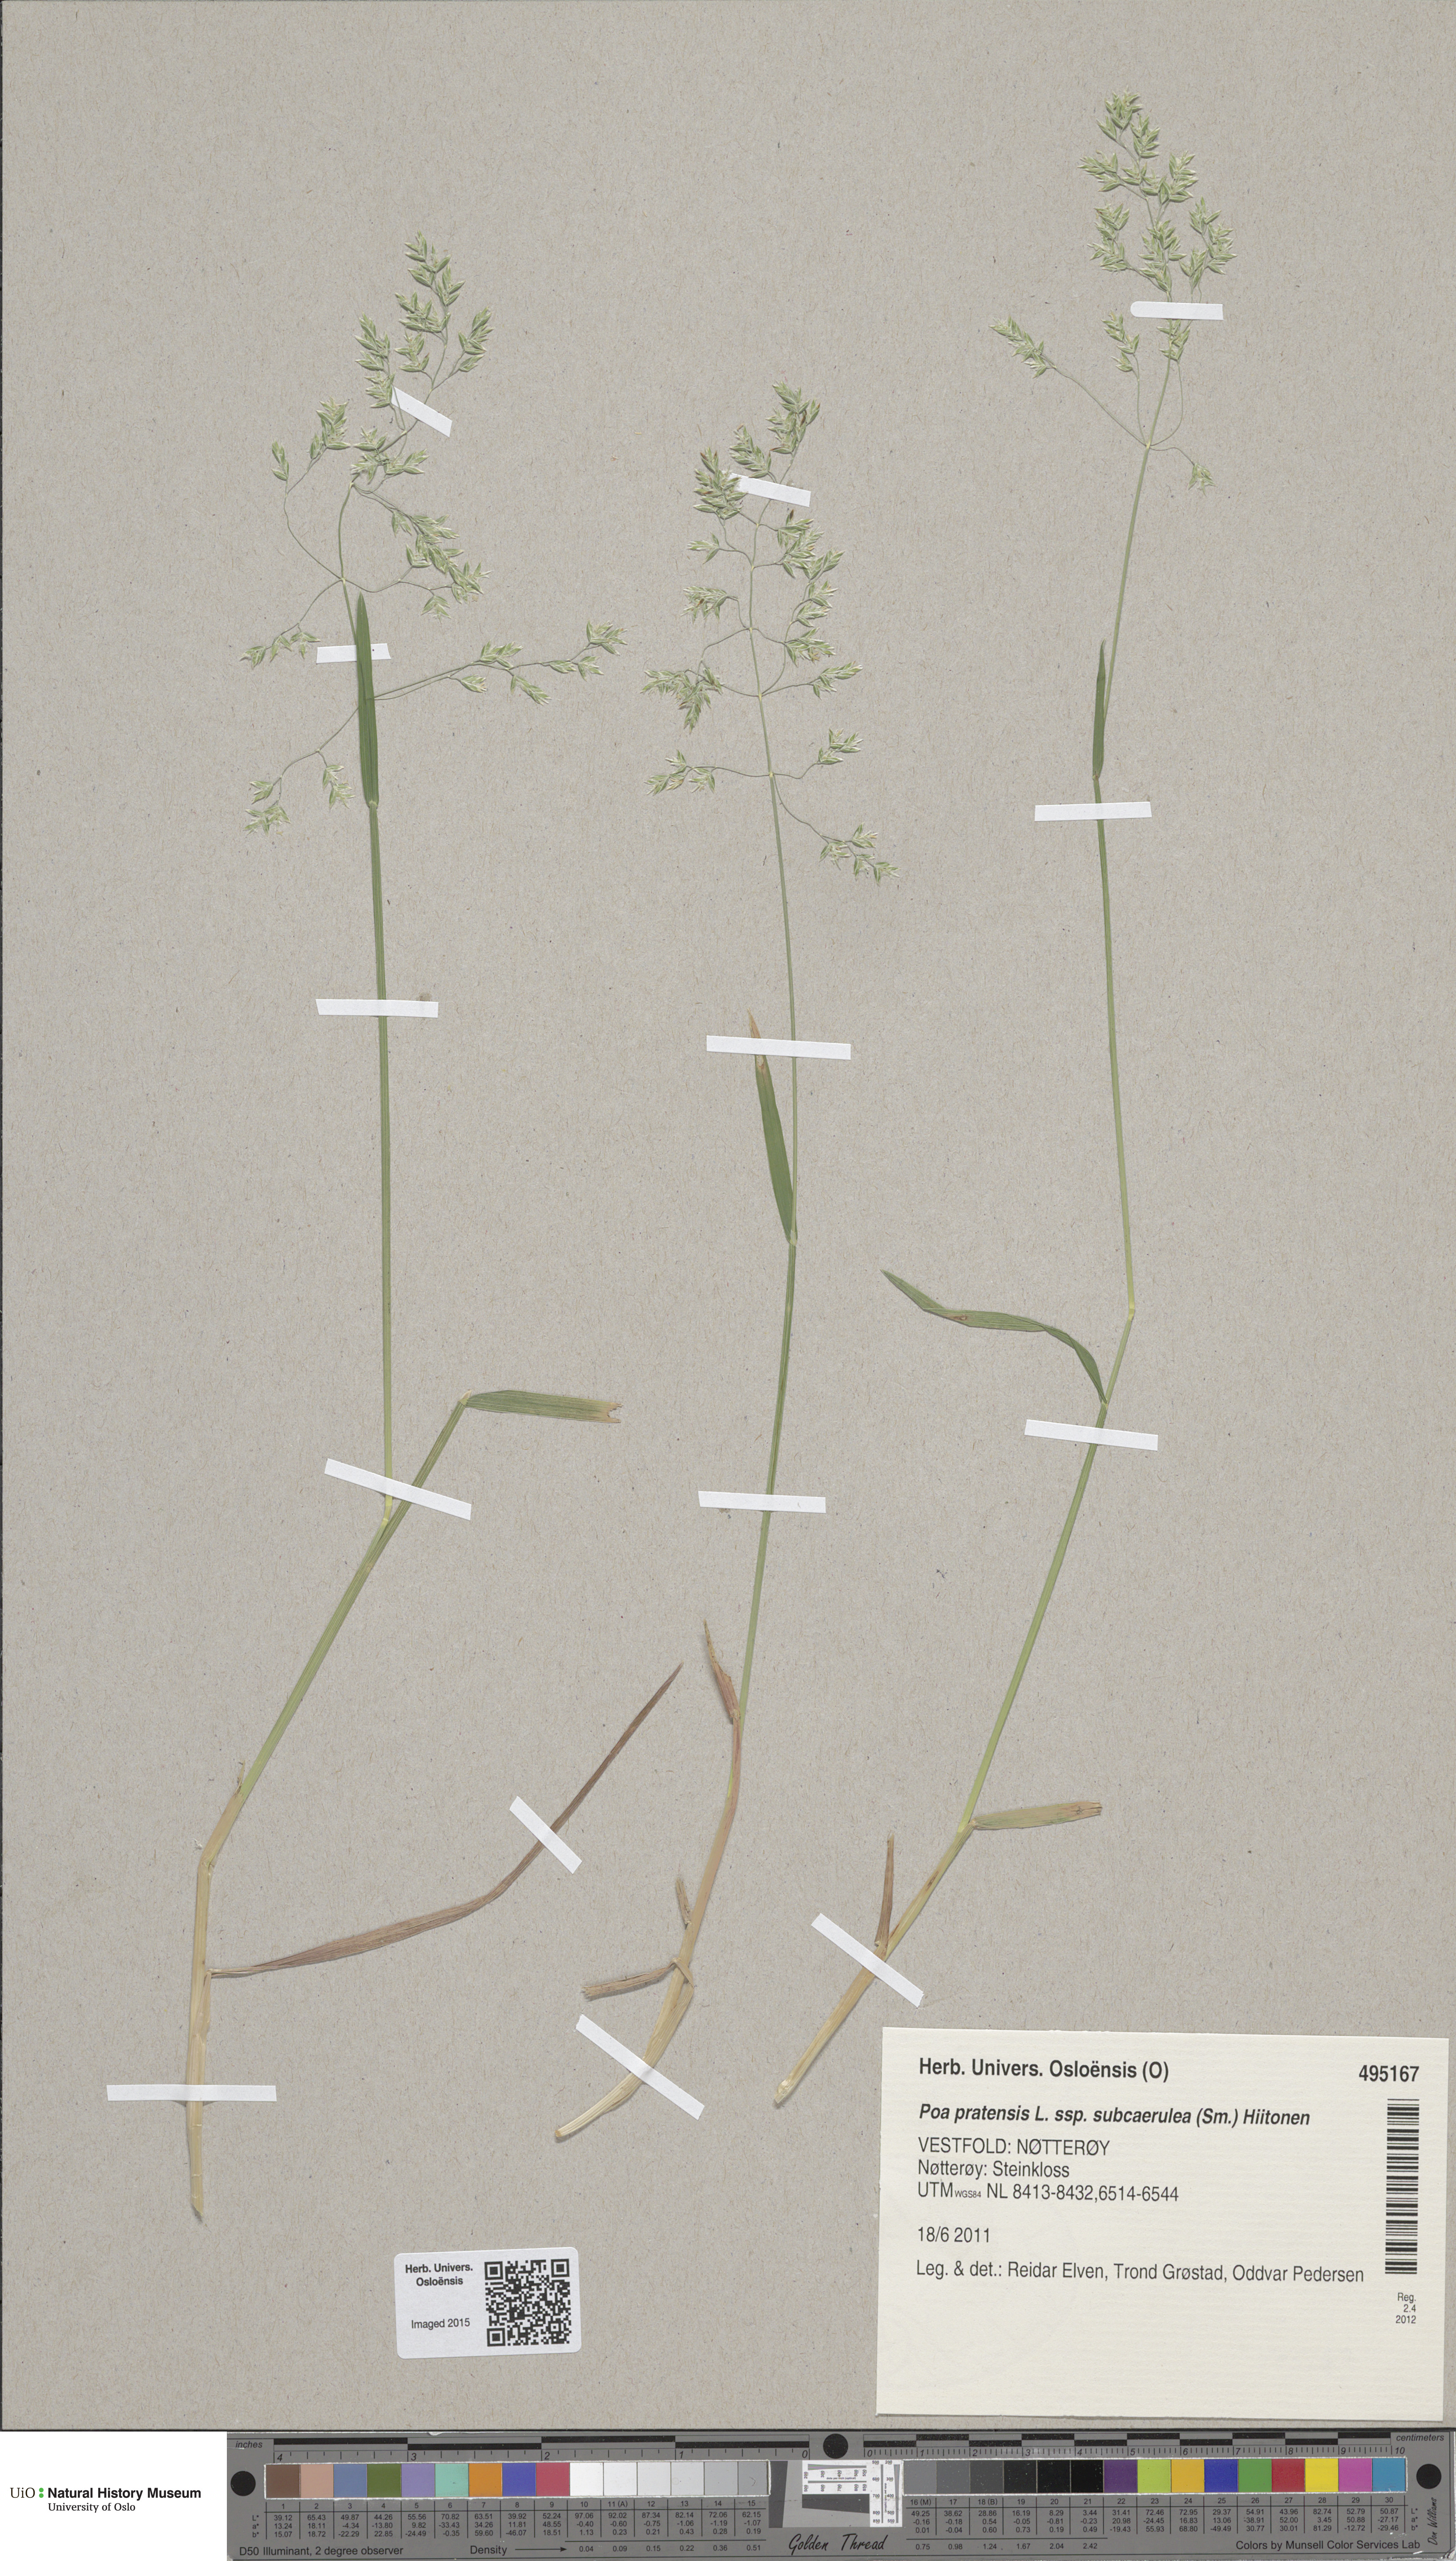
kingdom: Plantae
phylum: Tracheophyta
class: Liliopsida
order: Poales
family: Poaceae
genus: Poa
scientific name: Poa humilis
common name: Spreading meadow-grass
